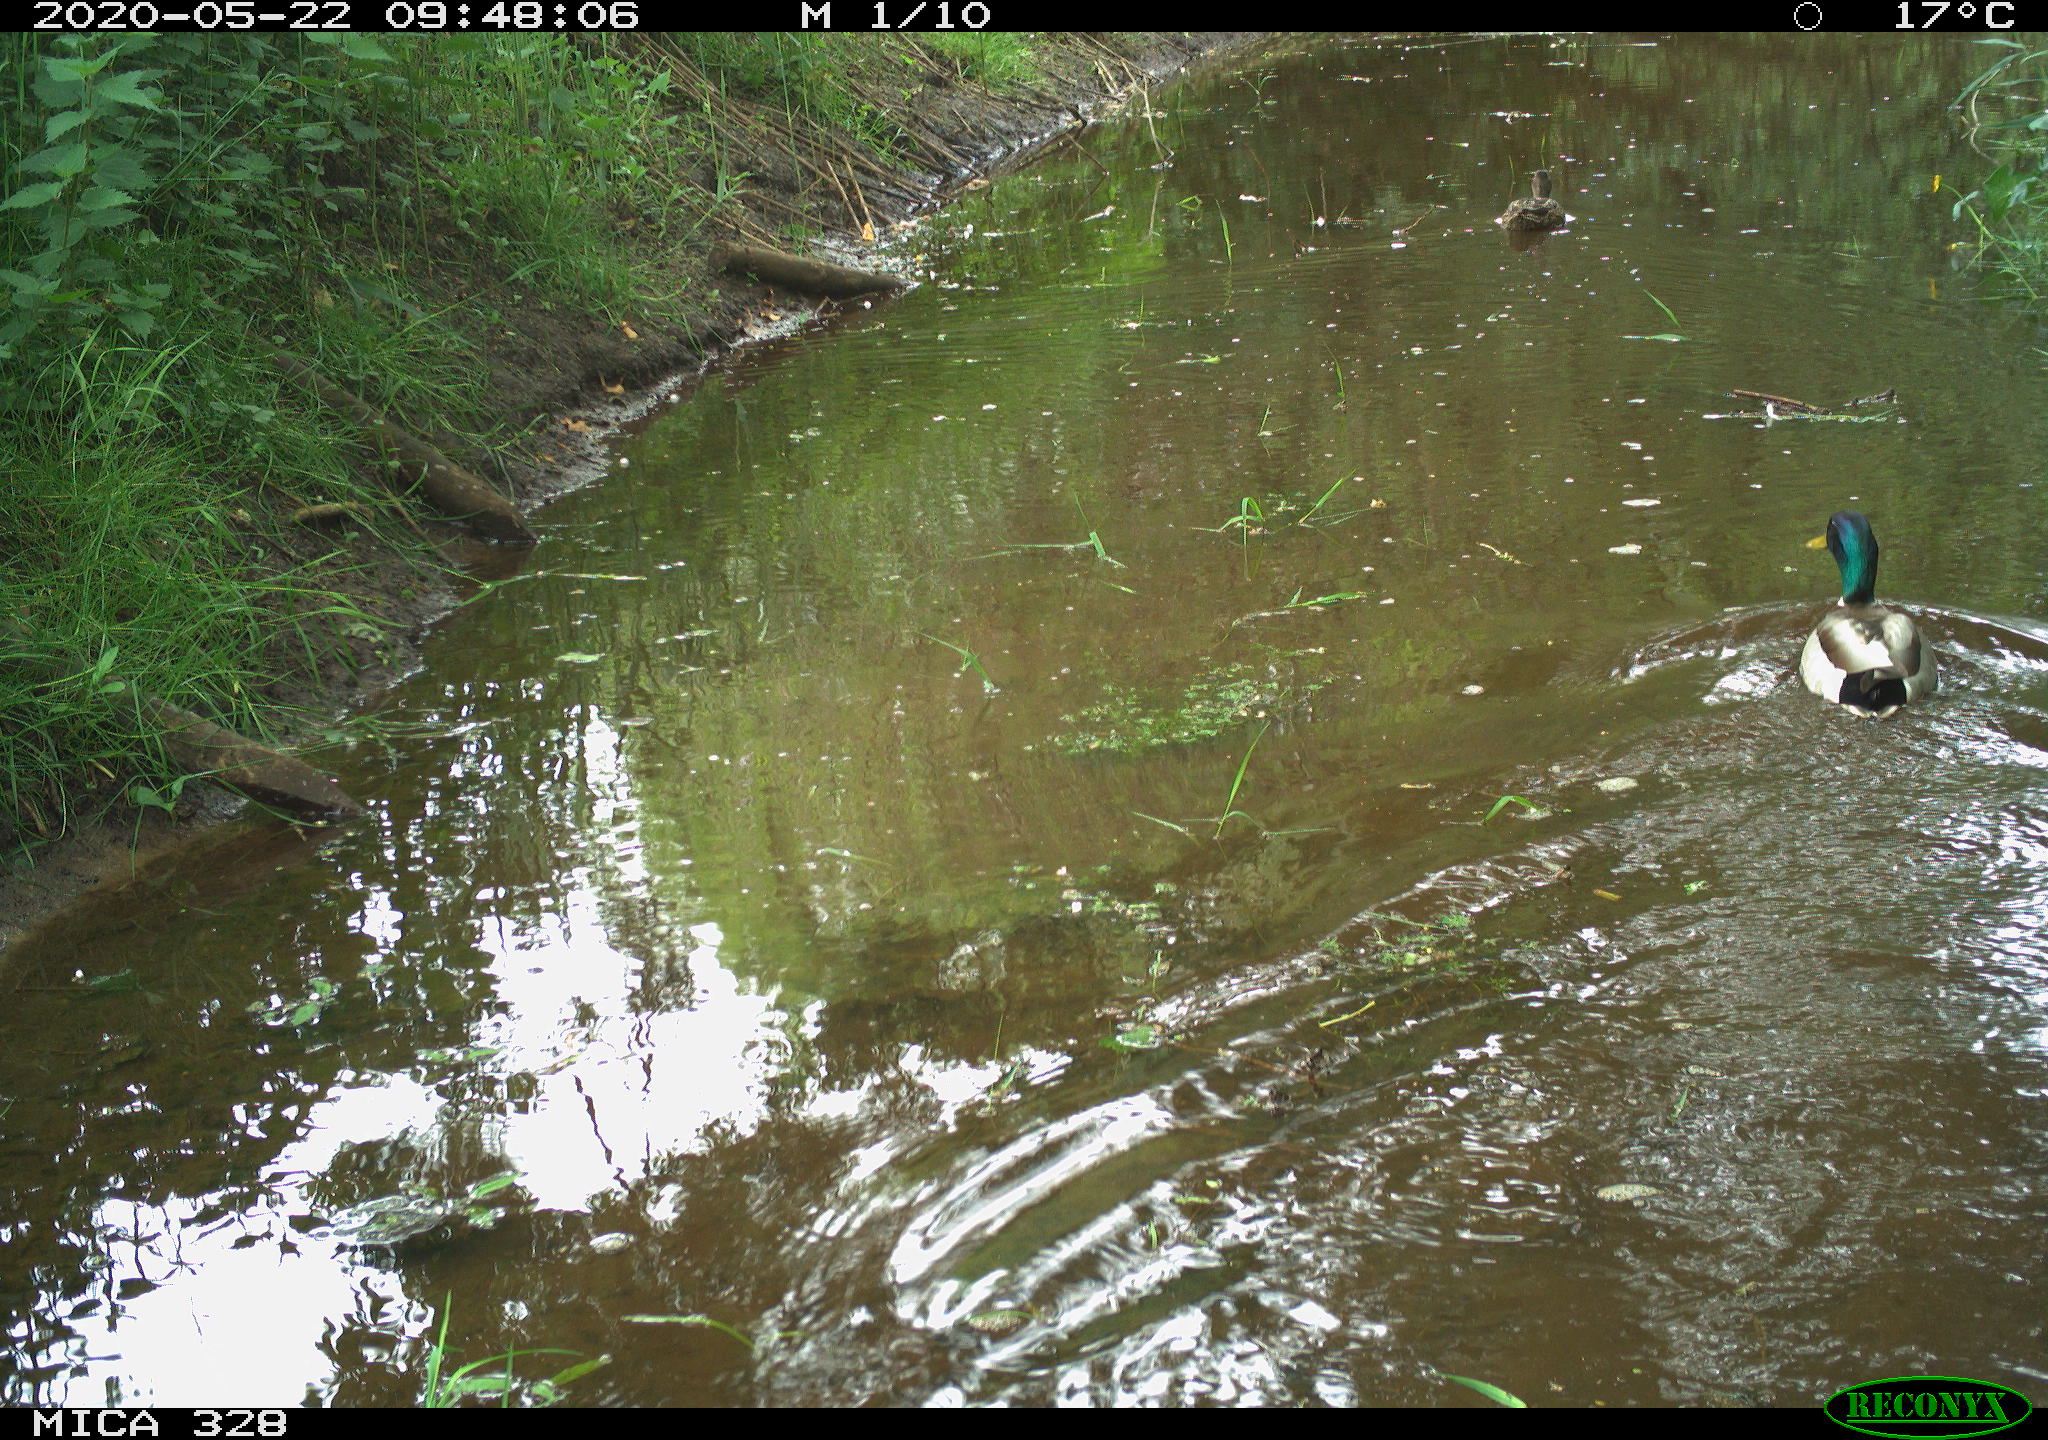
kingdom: Animalia
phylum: Chordata
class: Aves
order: Anseriformes
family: Anatidae
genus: Anas
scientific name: Anas platyrhynchos
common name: Mallard
